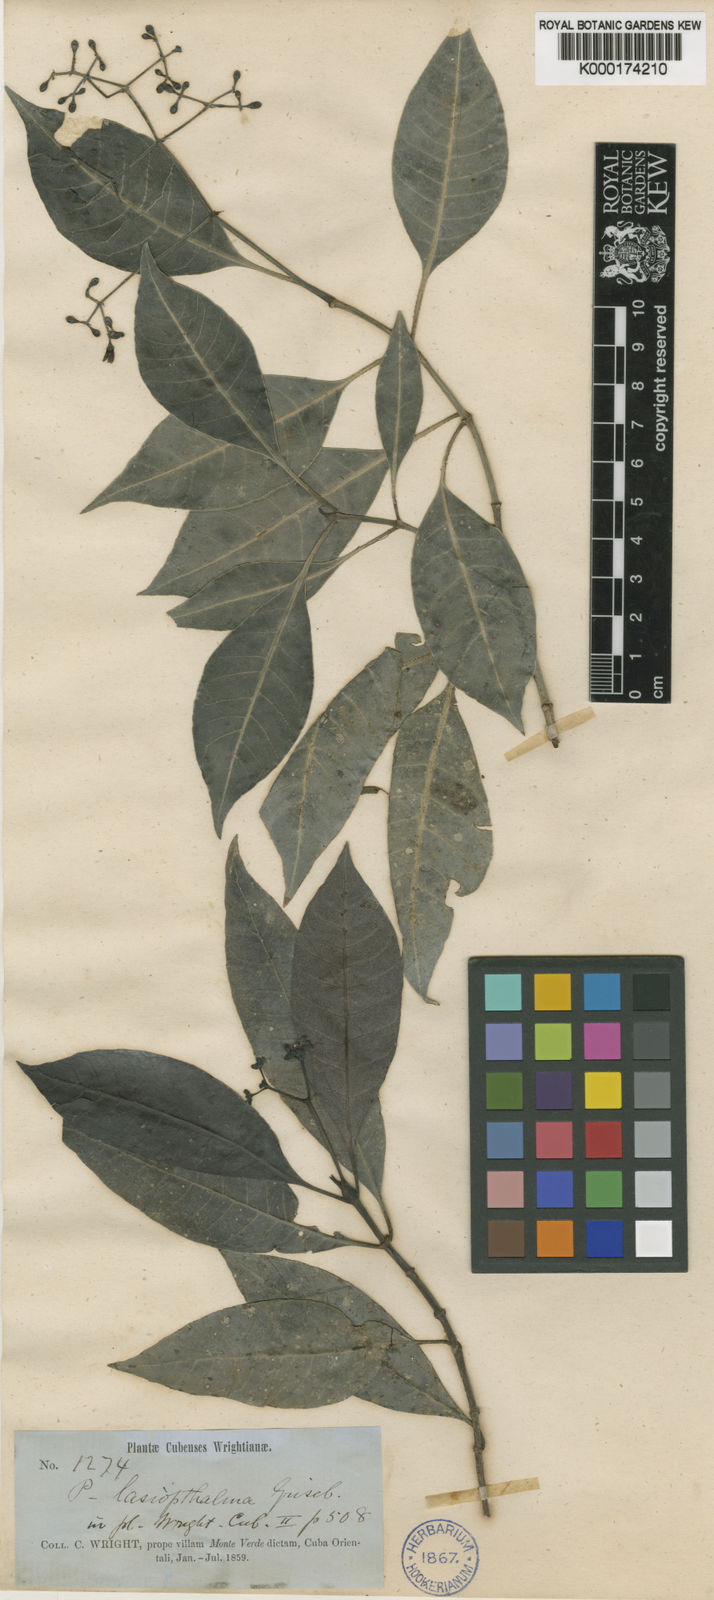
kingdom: Plantae
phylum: Tracheophyta
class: Magnoliopsida
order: Gentianales
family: Rubiaceae
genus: Psychotria
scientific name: Psychotria lasiophthalma
